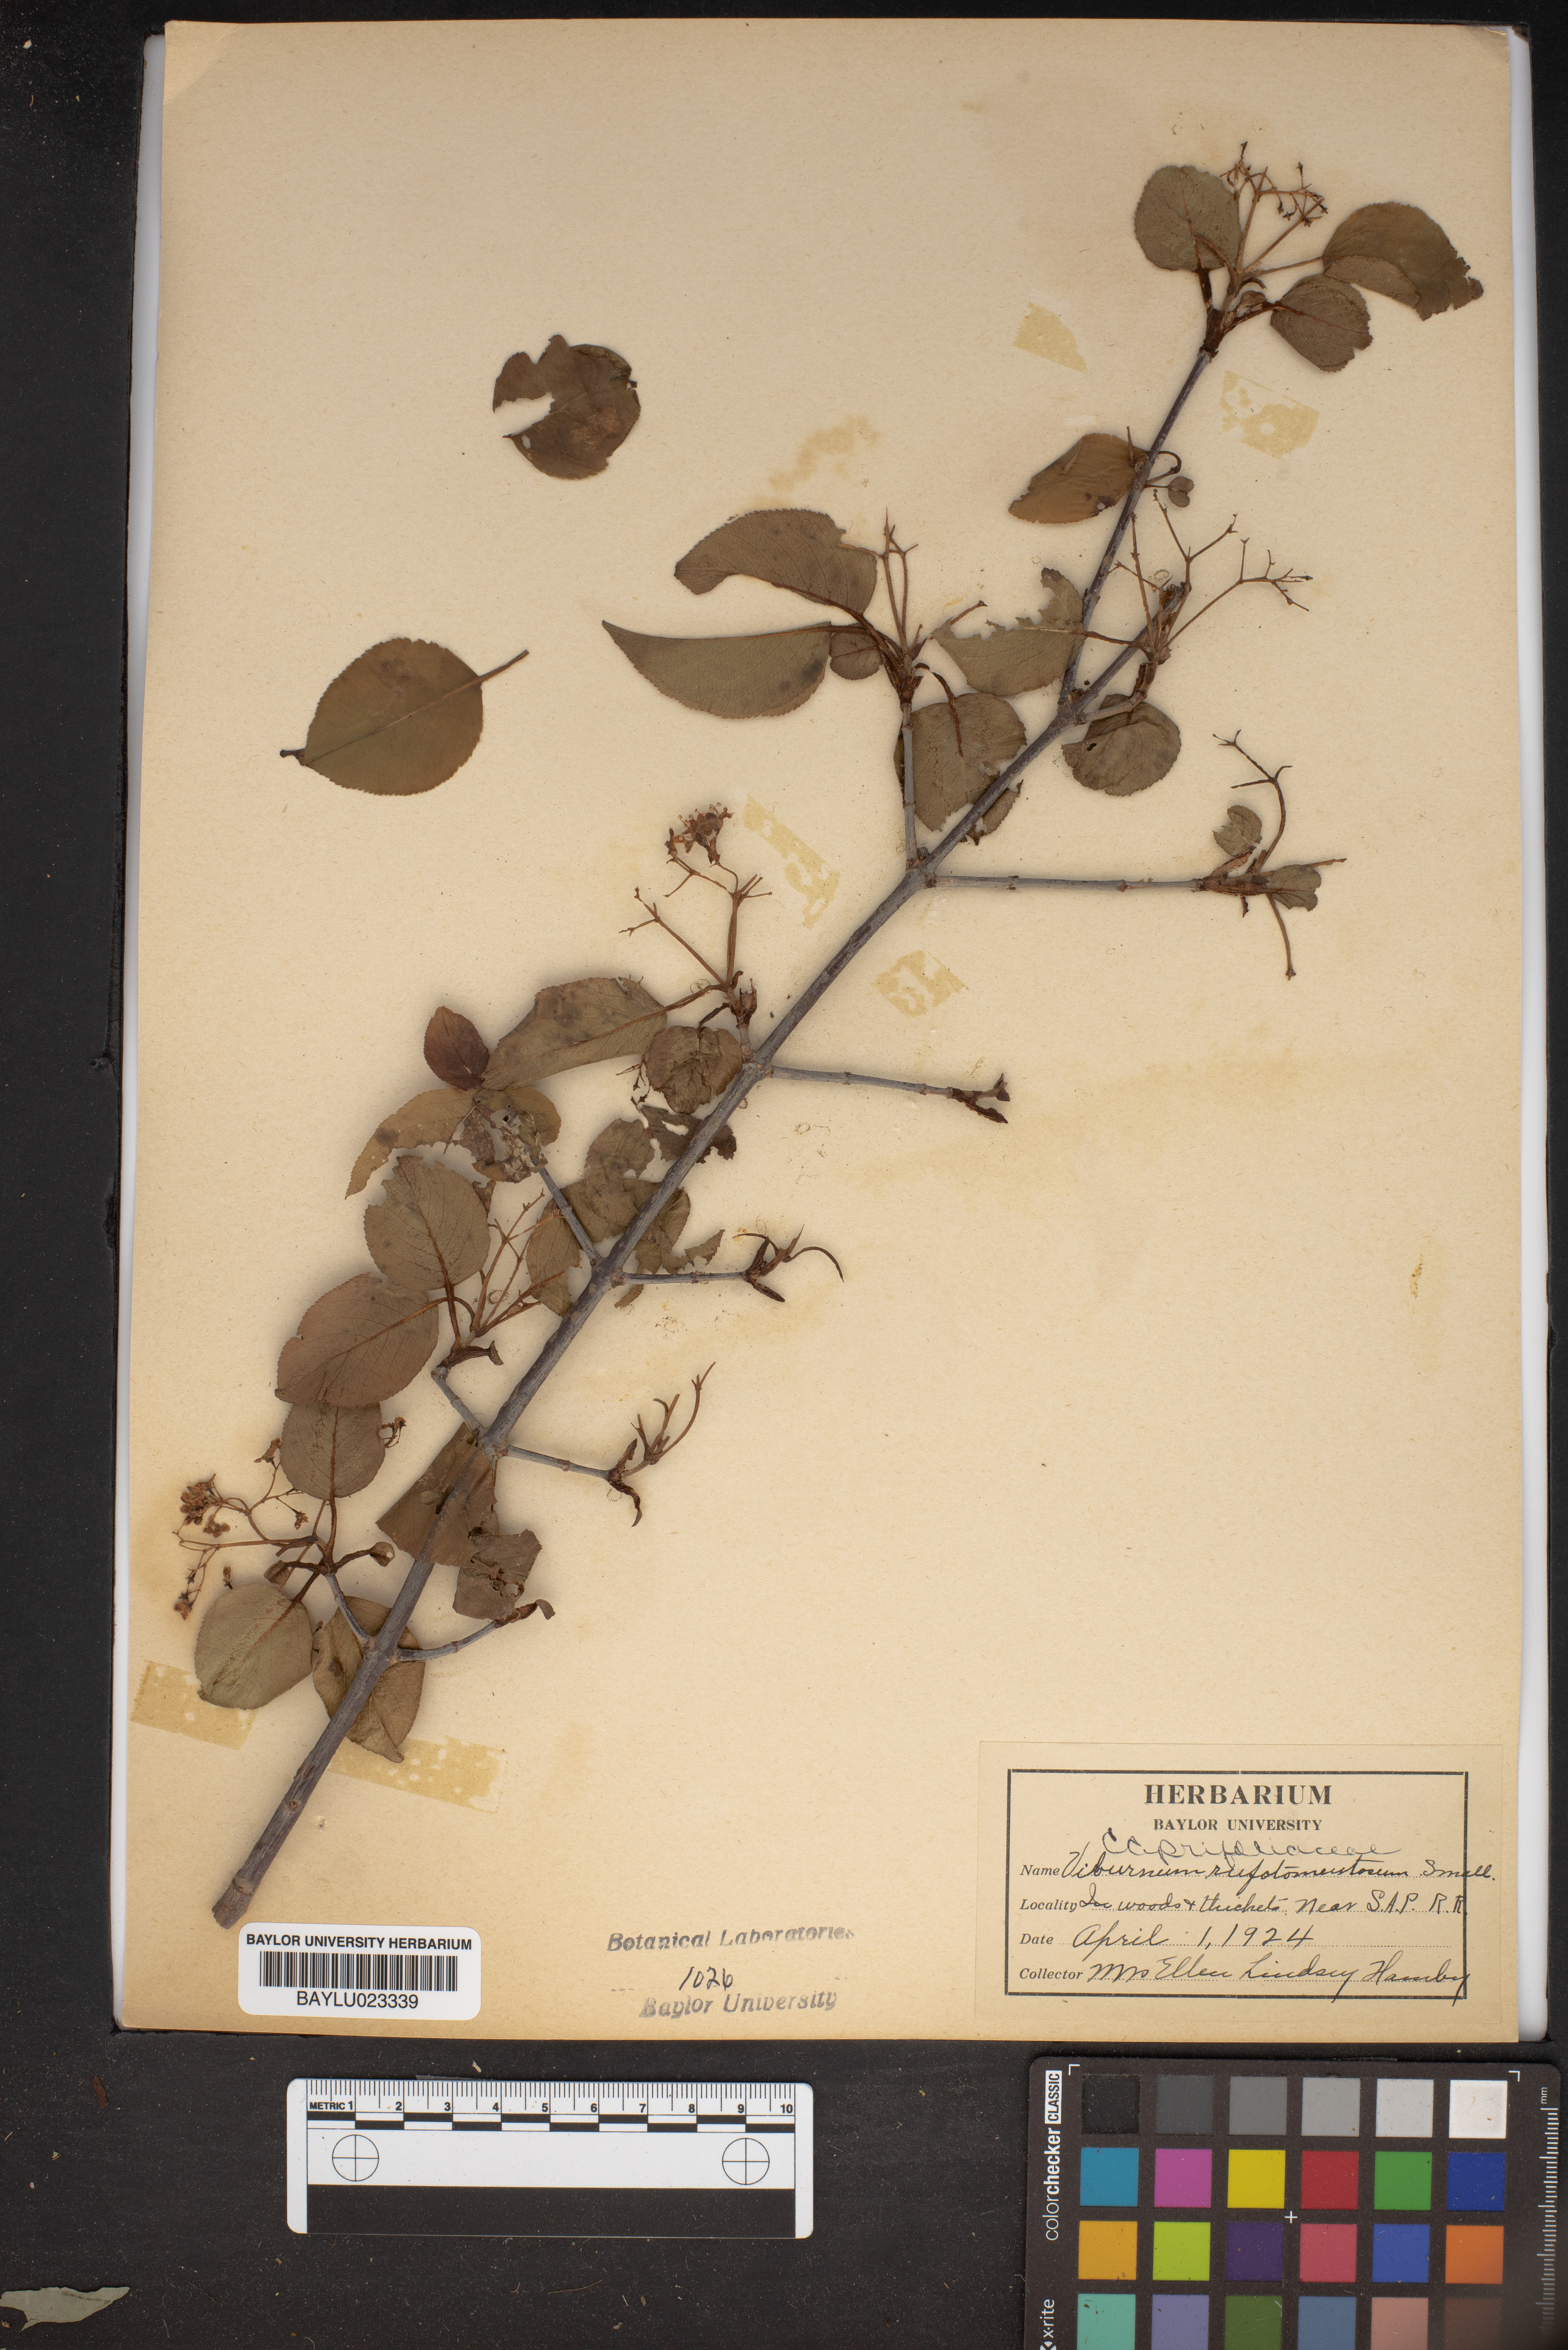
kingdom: Plantae
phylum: Tracheophyta
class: Magnoliopsida
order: Dipsacales
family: Viburnaceae
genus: Viburnum
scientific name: Viburnum rufidulum
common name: Blue haw
